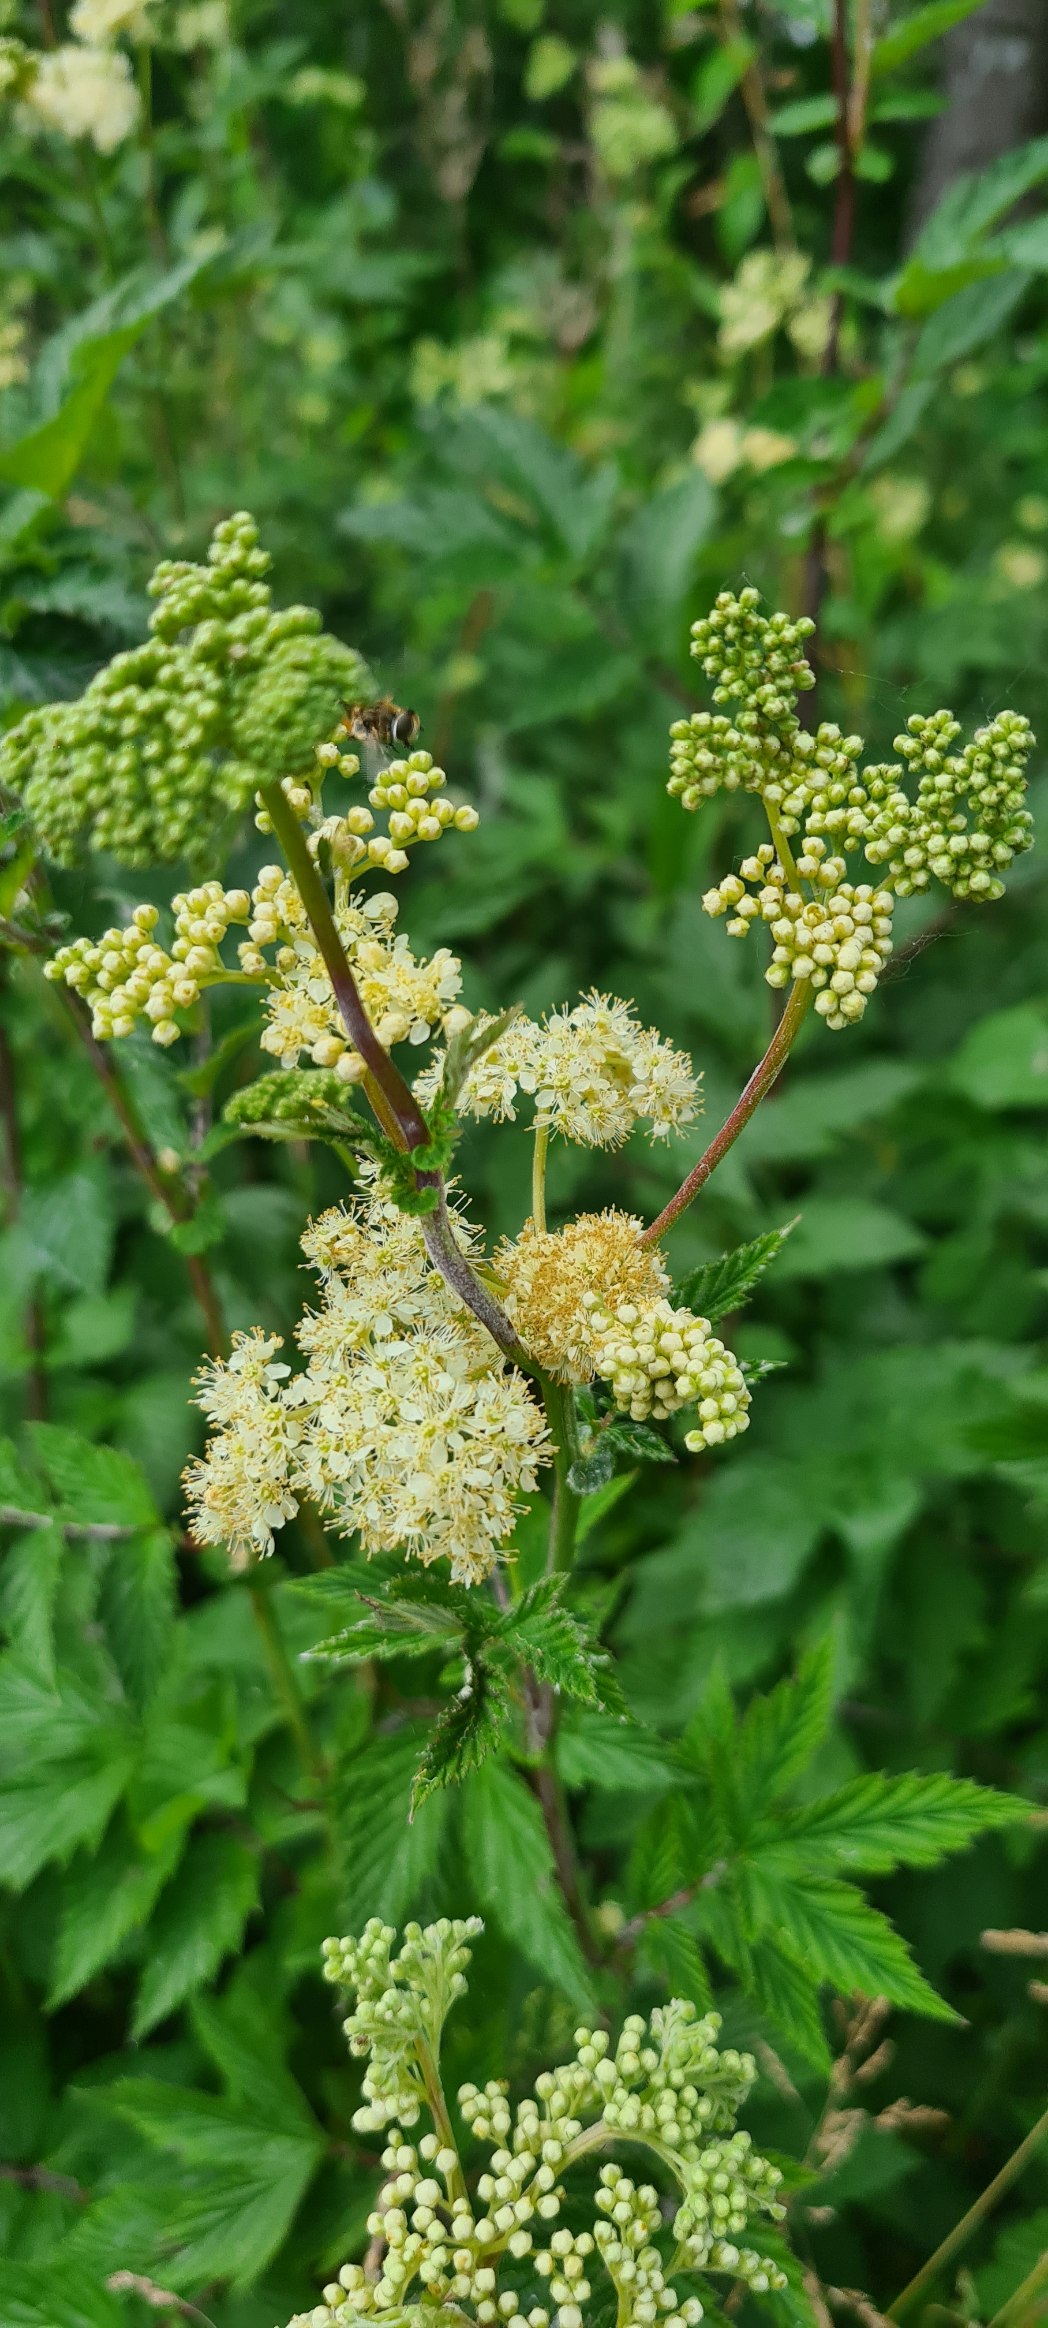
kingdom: Plantae
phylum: Tracheophyta
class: Magnoliopsida
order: Rosales
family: Rosaceae
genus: Filipendula
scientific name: Filipendula ulmaria
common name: Almindelig mjødurt
